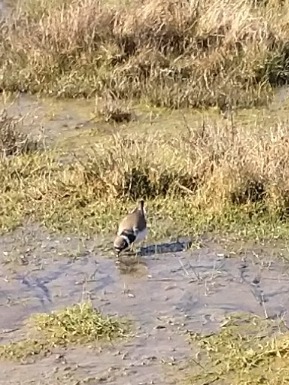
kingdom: Animalia
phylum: Chordata
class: Aves
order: Charadriiformes
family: Charadriidae
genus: Charadrius
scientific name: Charadrius dubius
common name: Lille præstekrave
